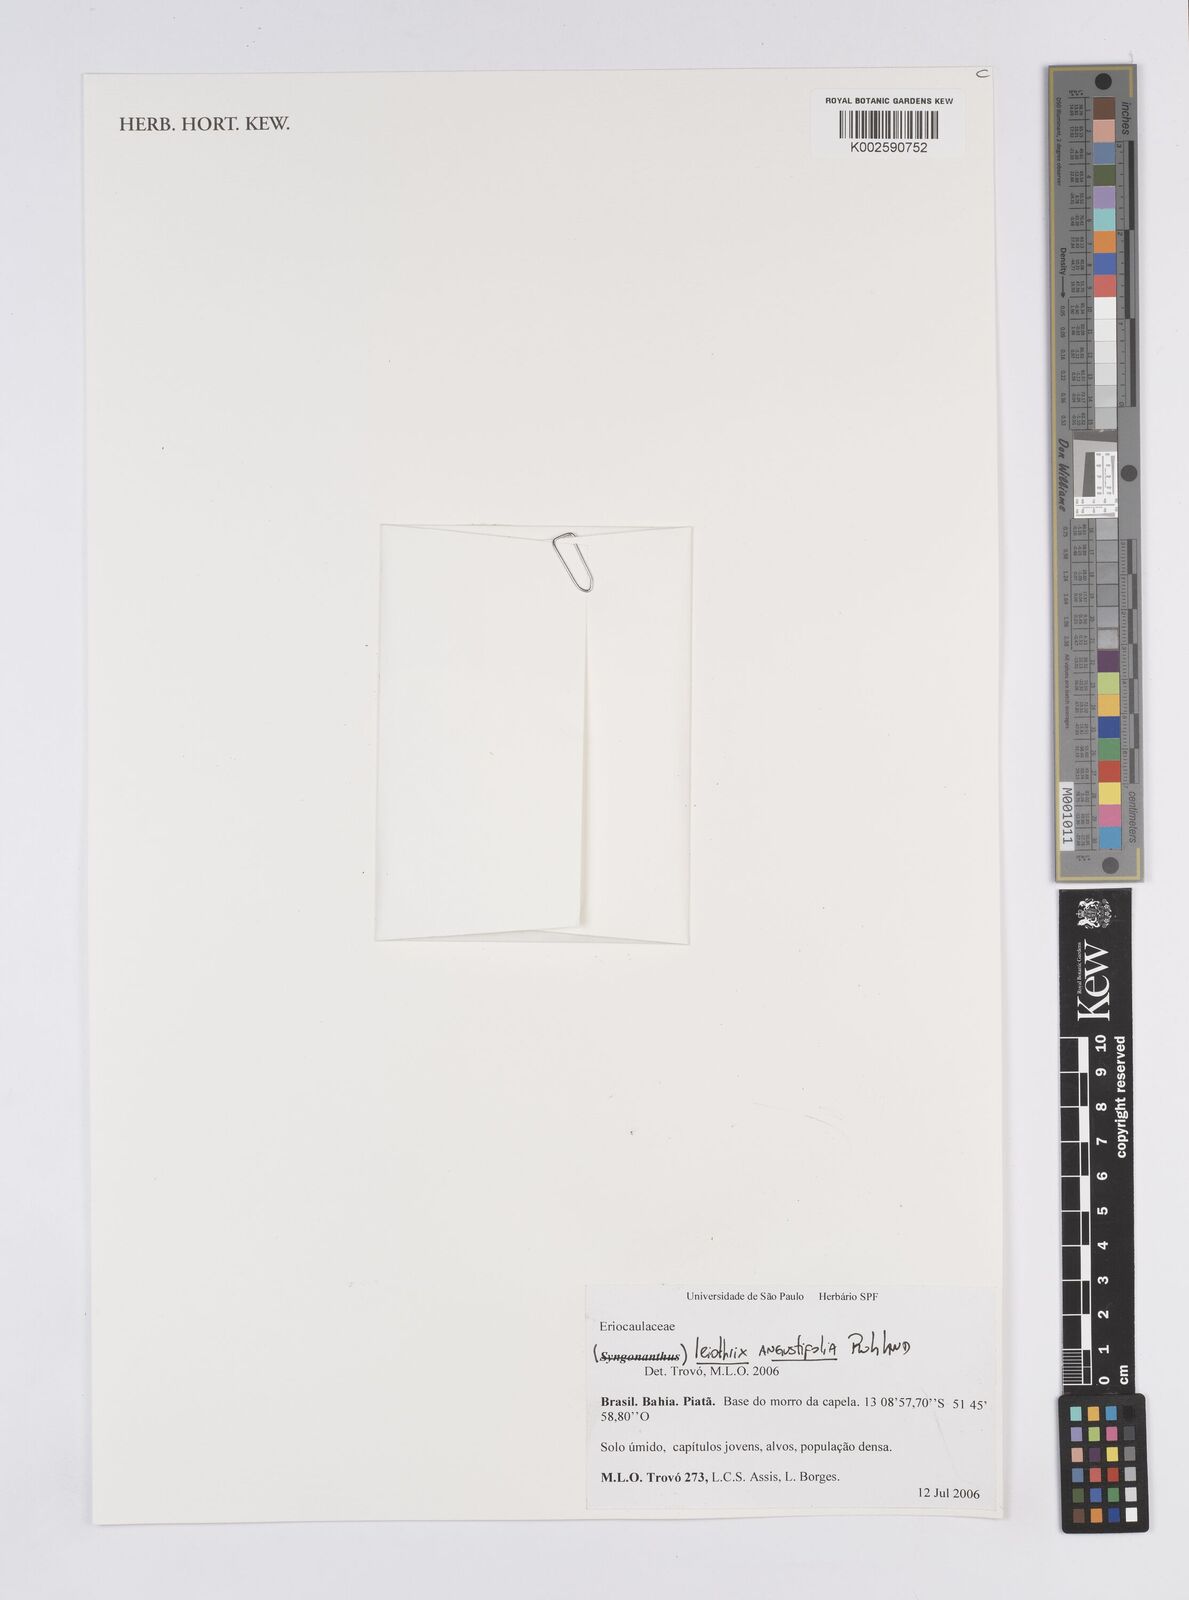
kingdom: Plantae
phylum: Tracheophyta
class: Liliopsida
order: Poales
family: Eriocaulaceae
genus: Leiothrix
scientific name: Leiothrix angustifolia
